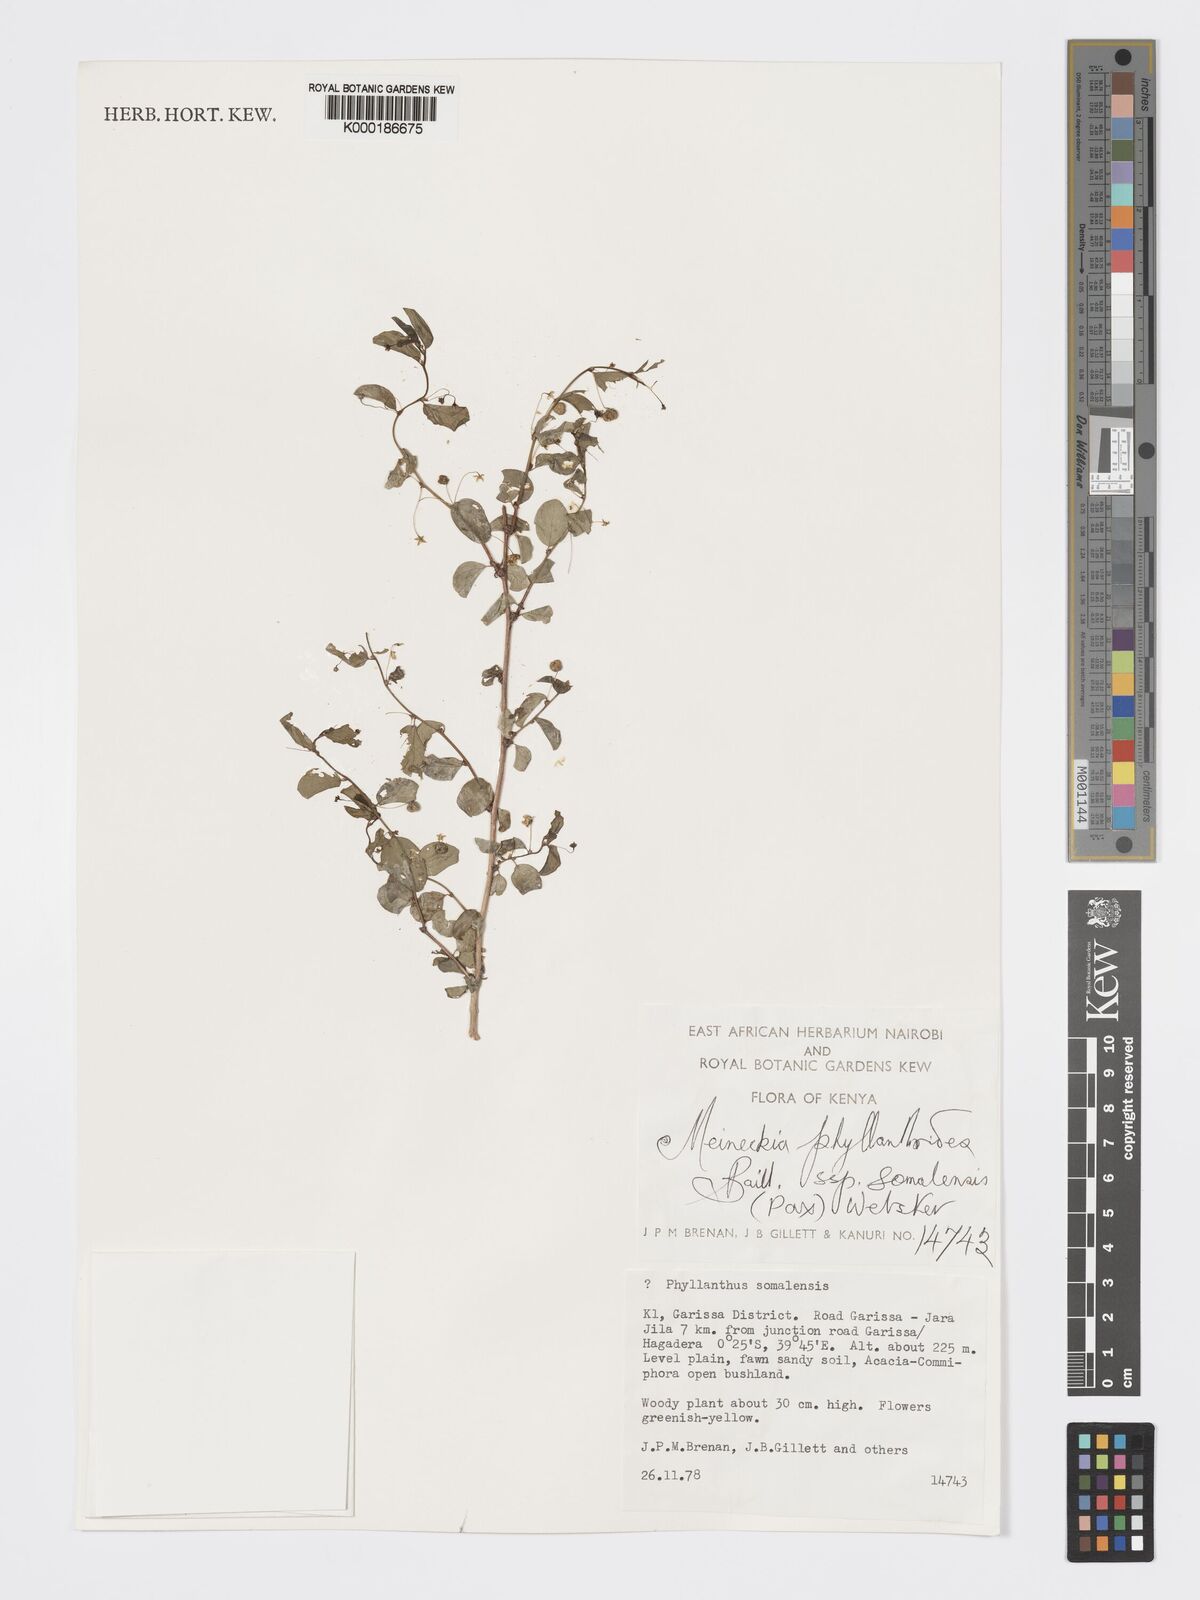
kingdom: Plantae
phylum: Tracheophyta
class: Magnoliopsida
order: Malpighiales
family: Phyllanthaceae
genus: Meineckia
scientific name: Meineckia phyllanthoides
